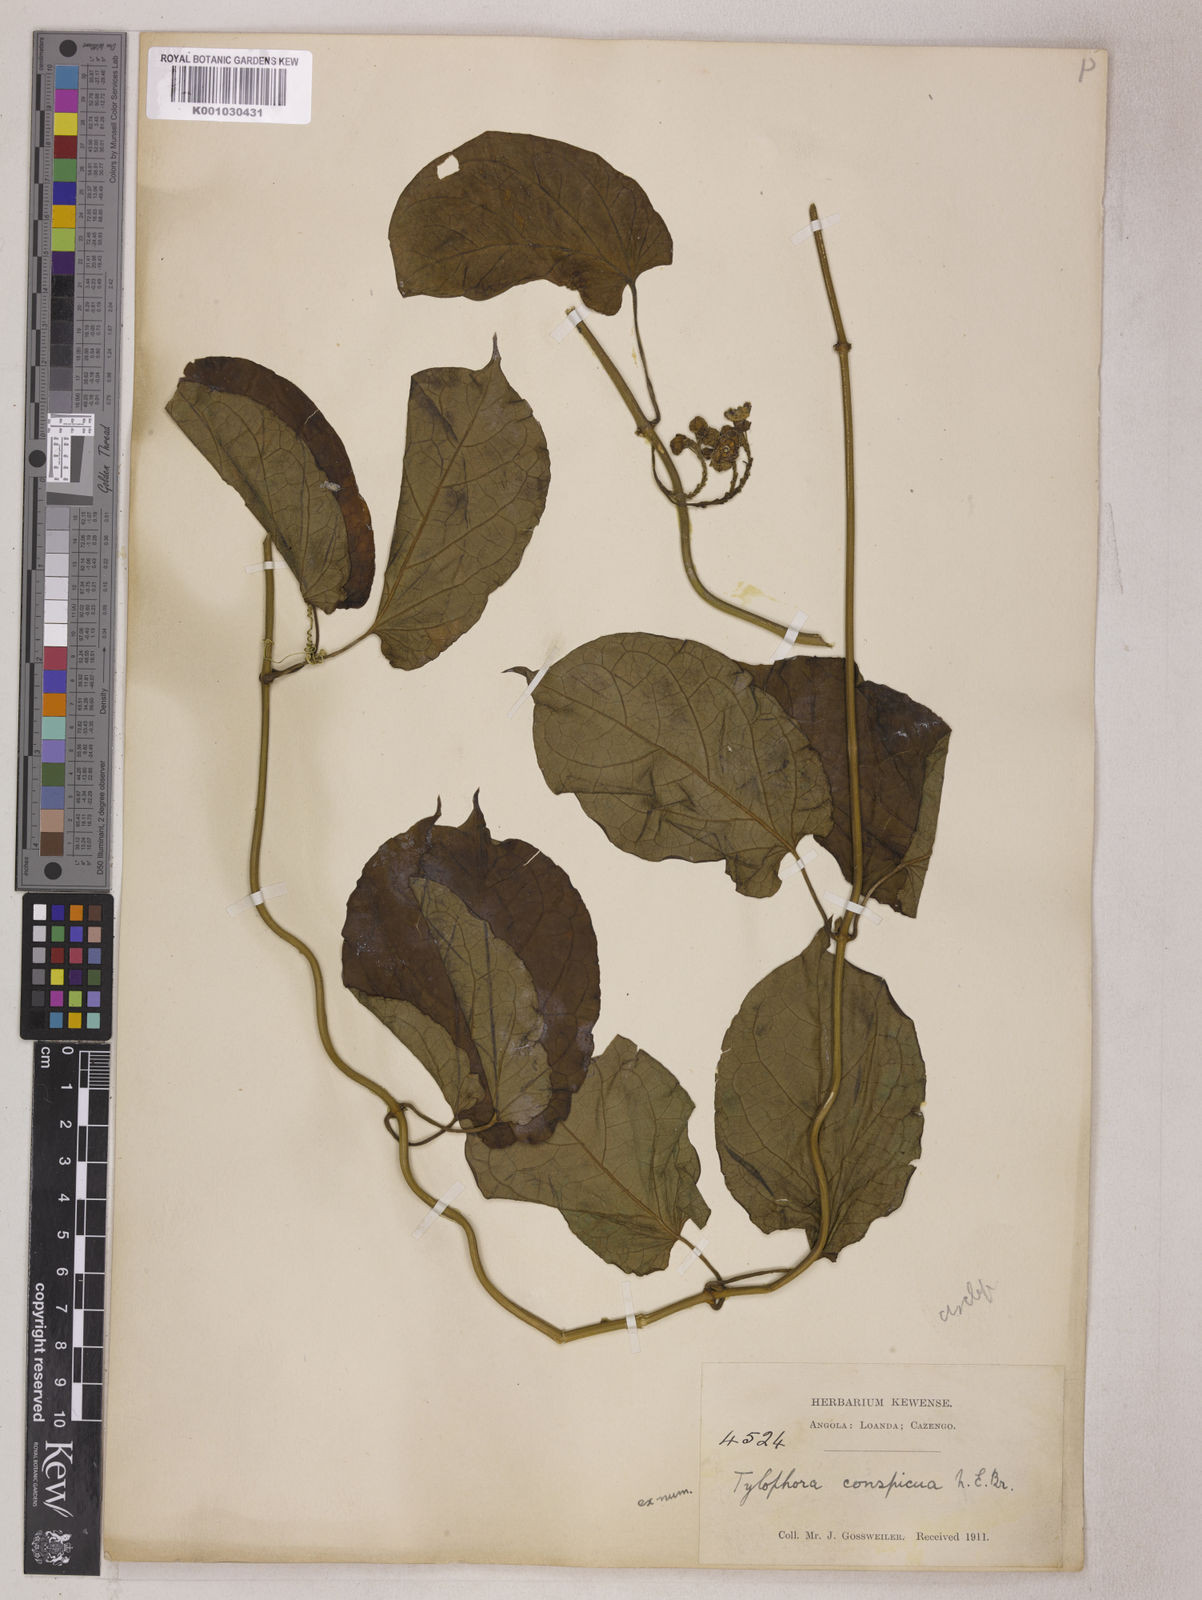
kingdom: Plantae
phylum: Tracheophyta
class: Magnoliopsida
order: Gentianales
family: Apocynaceae
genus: Vincetoxicum
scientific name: Vincetoxicum conspicuum
